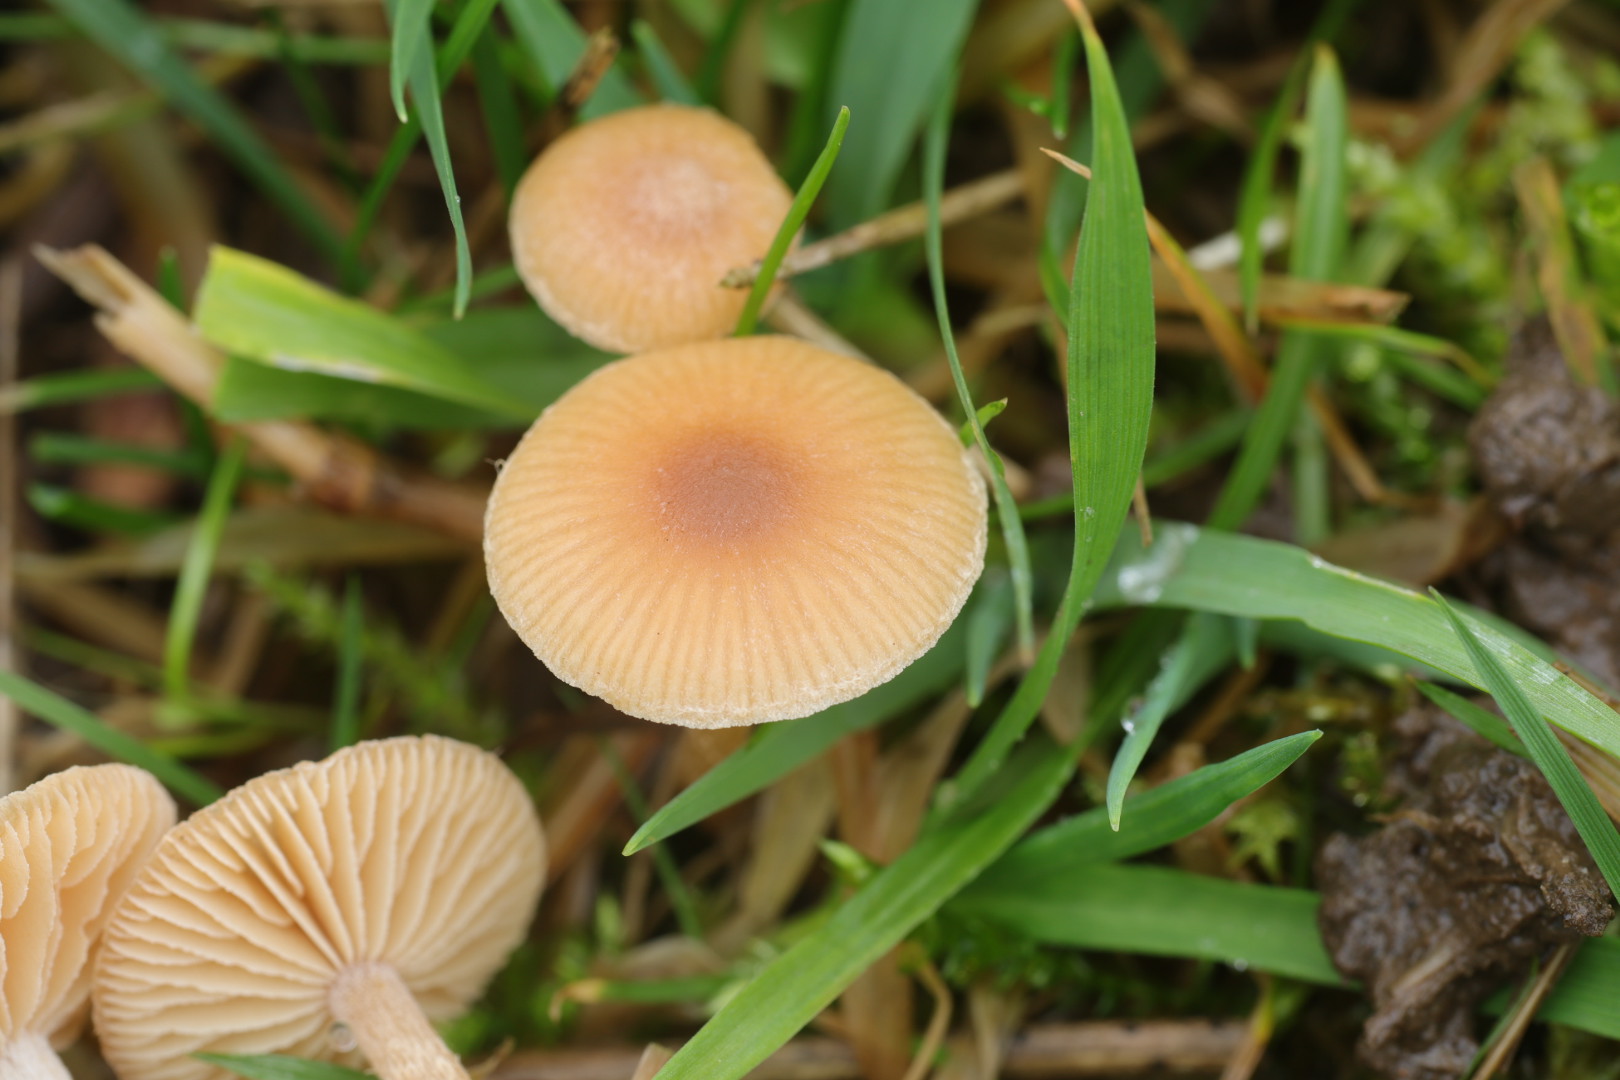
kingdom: Fungi
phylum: Basidiomycota
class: Agaricomycetes
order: Agaricales
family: Tubariaceae
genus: Tubaria
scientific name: Tubaria furfuracea
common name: kliddet fnughat
